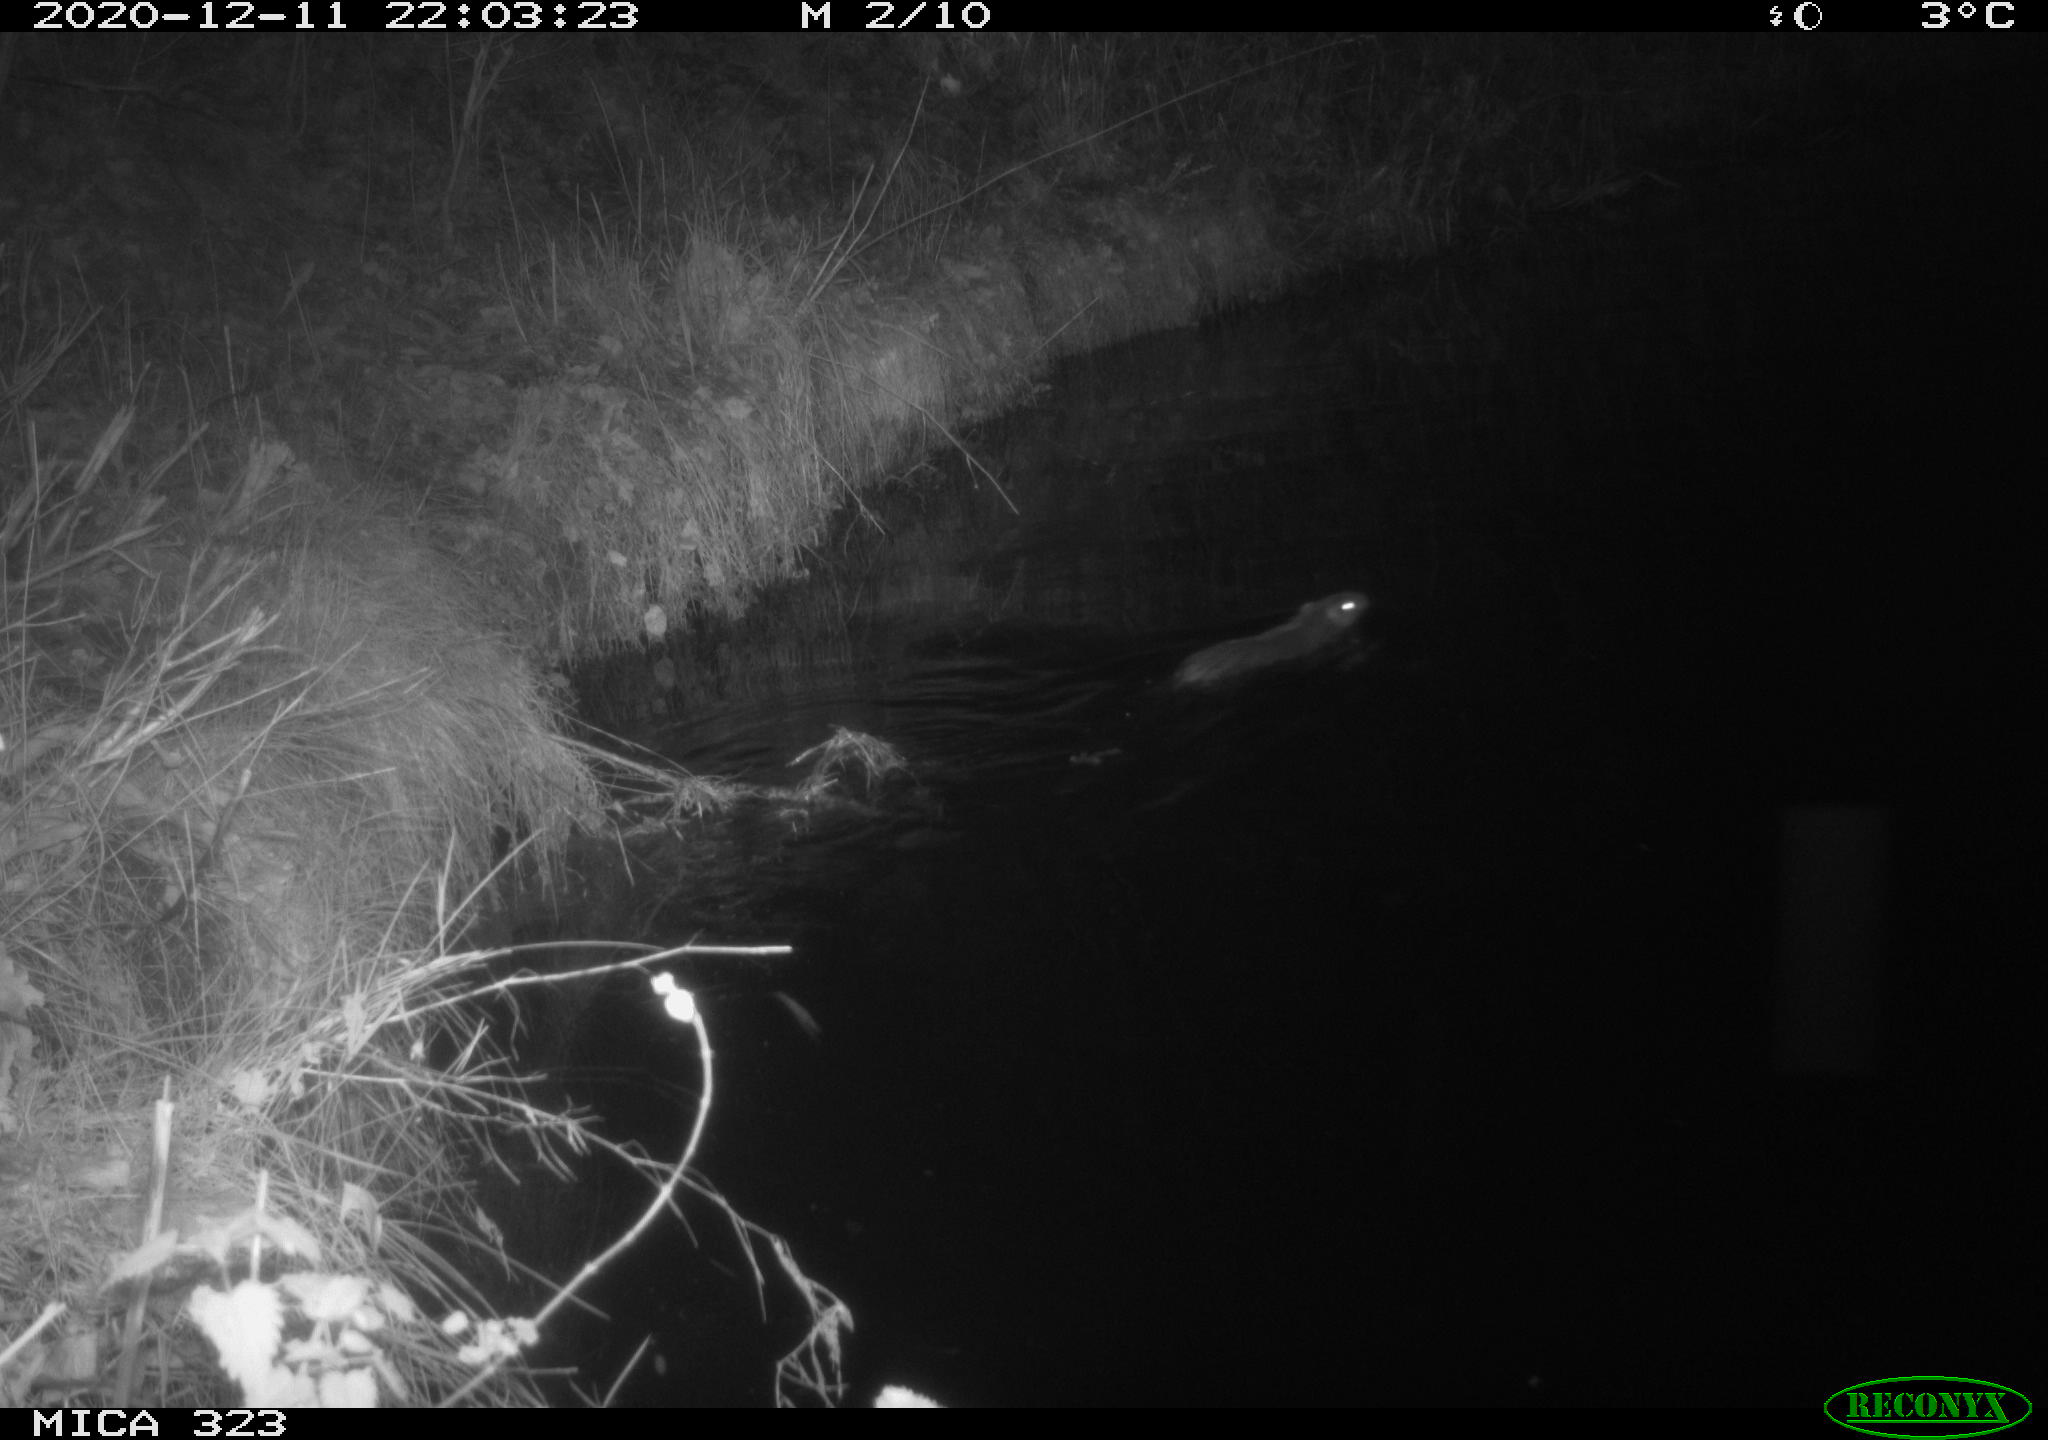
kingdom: Animalia
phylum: Chordata
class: Mammalia
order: Rodentia
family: Myocastoridae
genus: Myocastor
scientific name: Myocastor coypus
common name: Coypu
